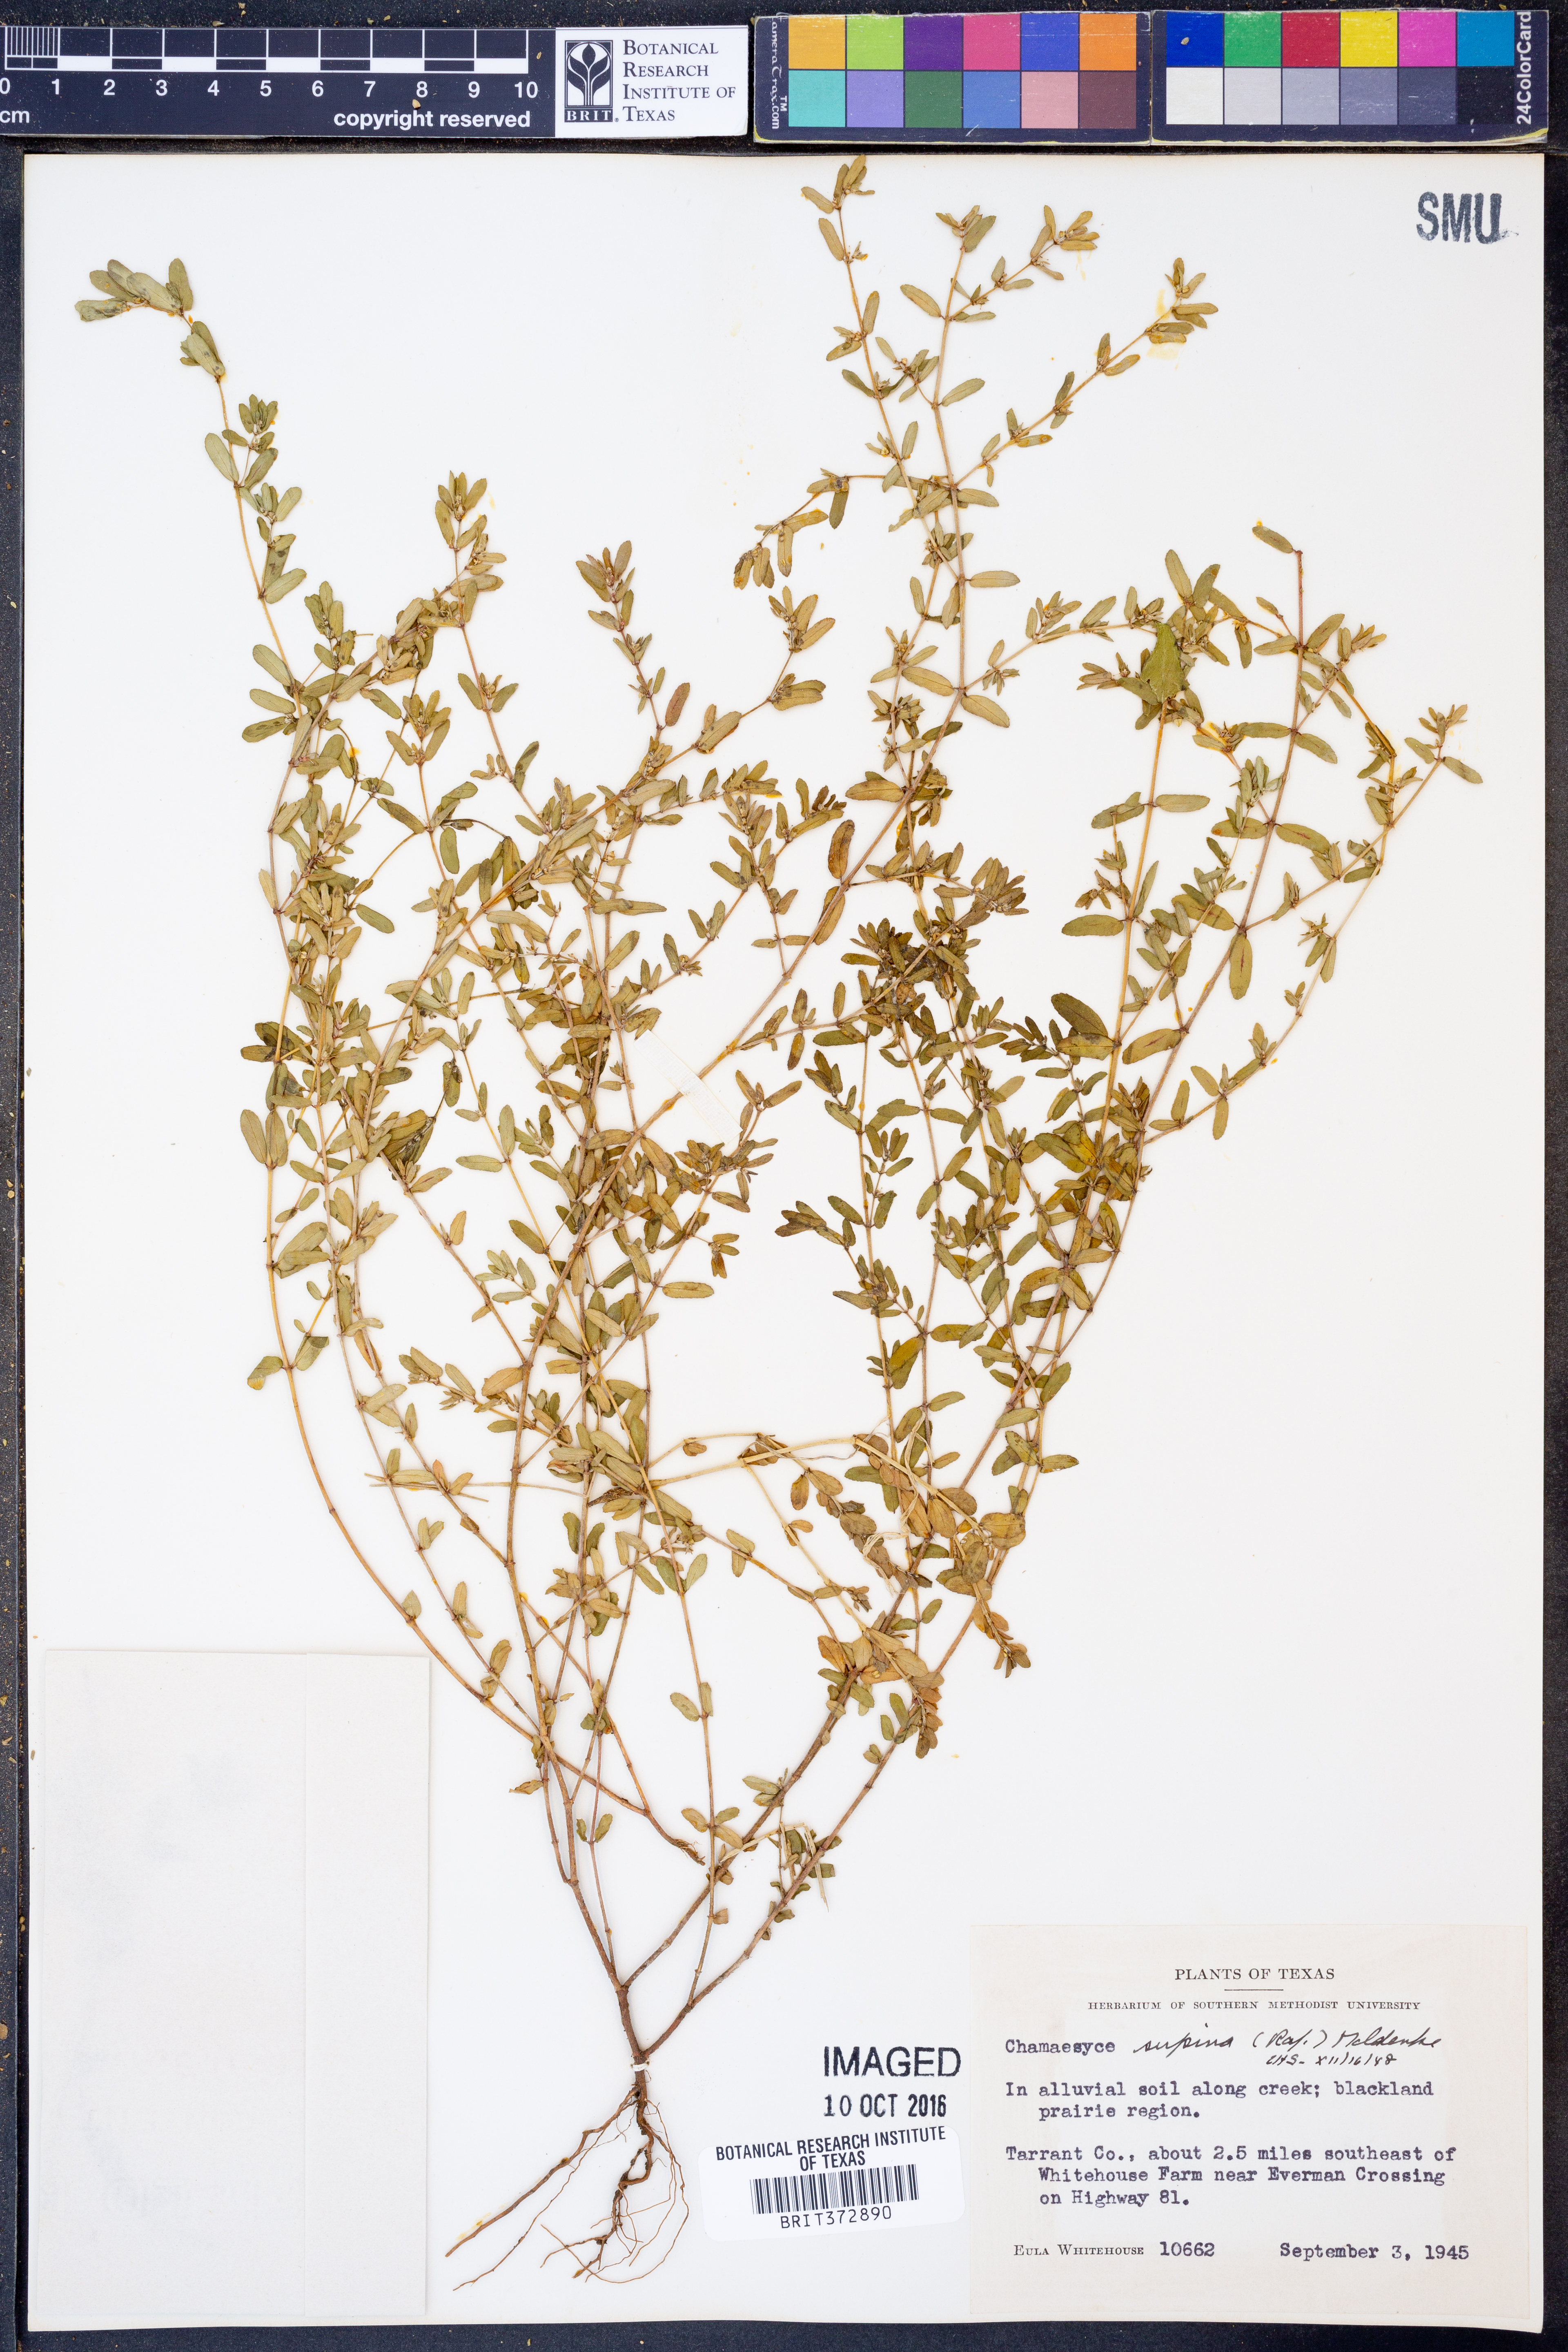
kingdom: Plantae
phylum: Tracheophyta
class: Magnoliopsida
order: Malpighiales
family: Euphorbiaceae
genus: Euphorbia
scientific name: Euphorbia maculata
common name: Spotted spurge
